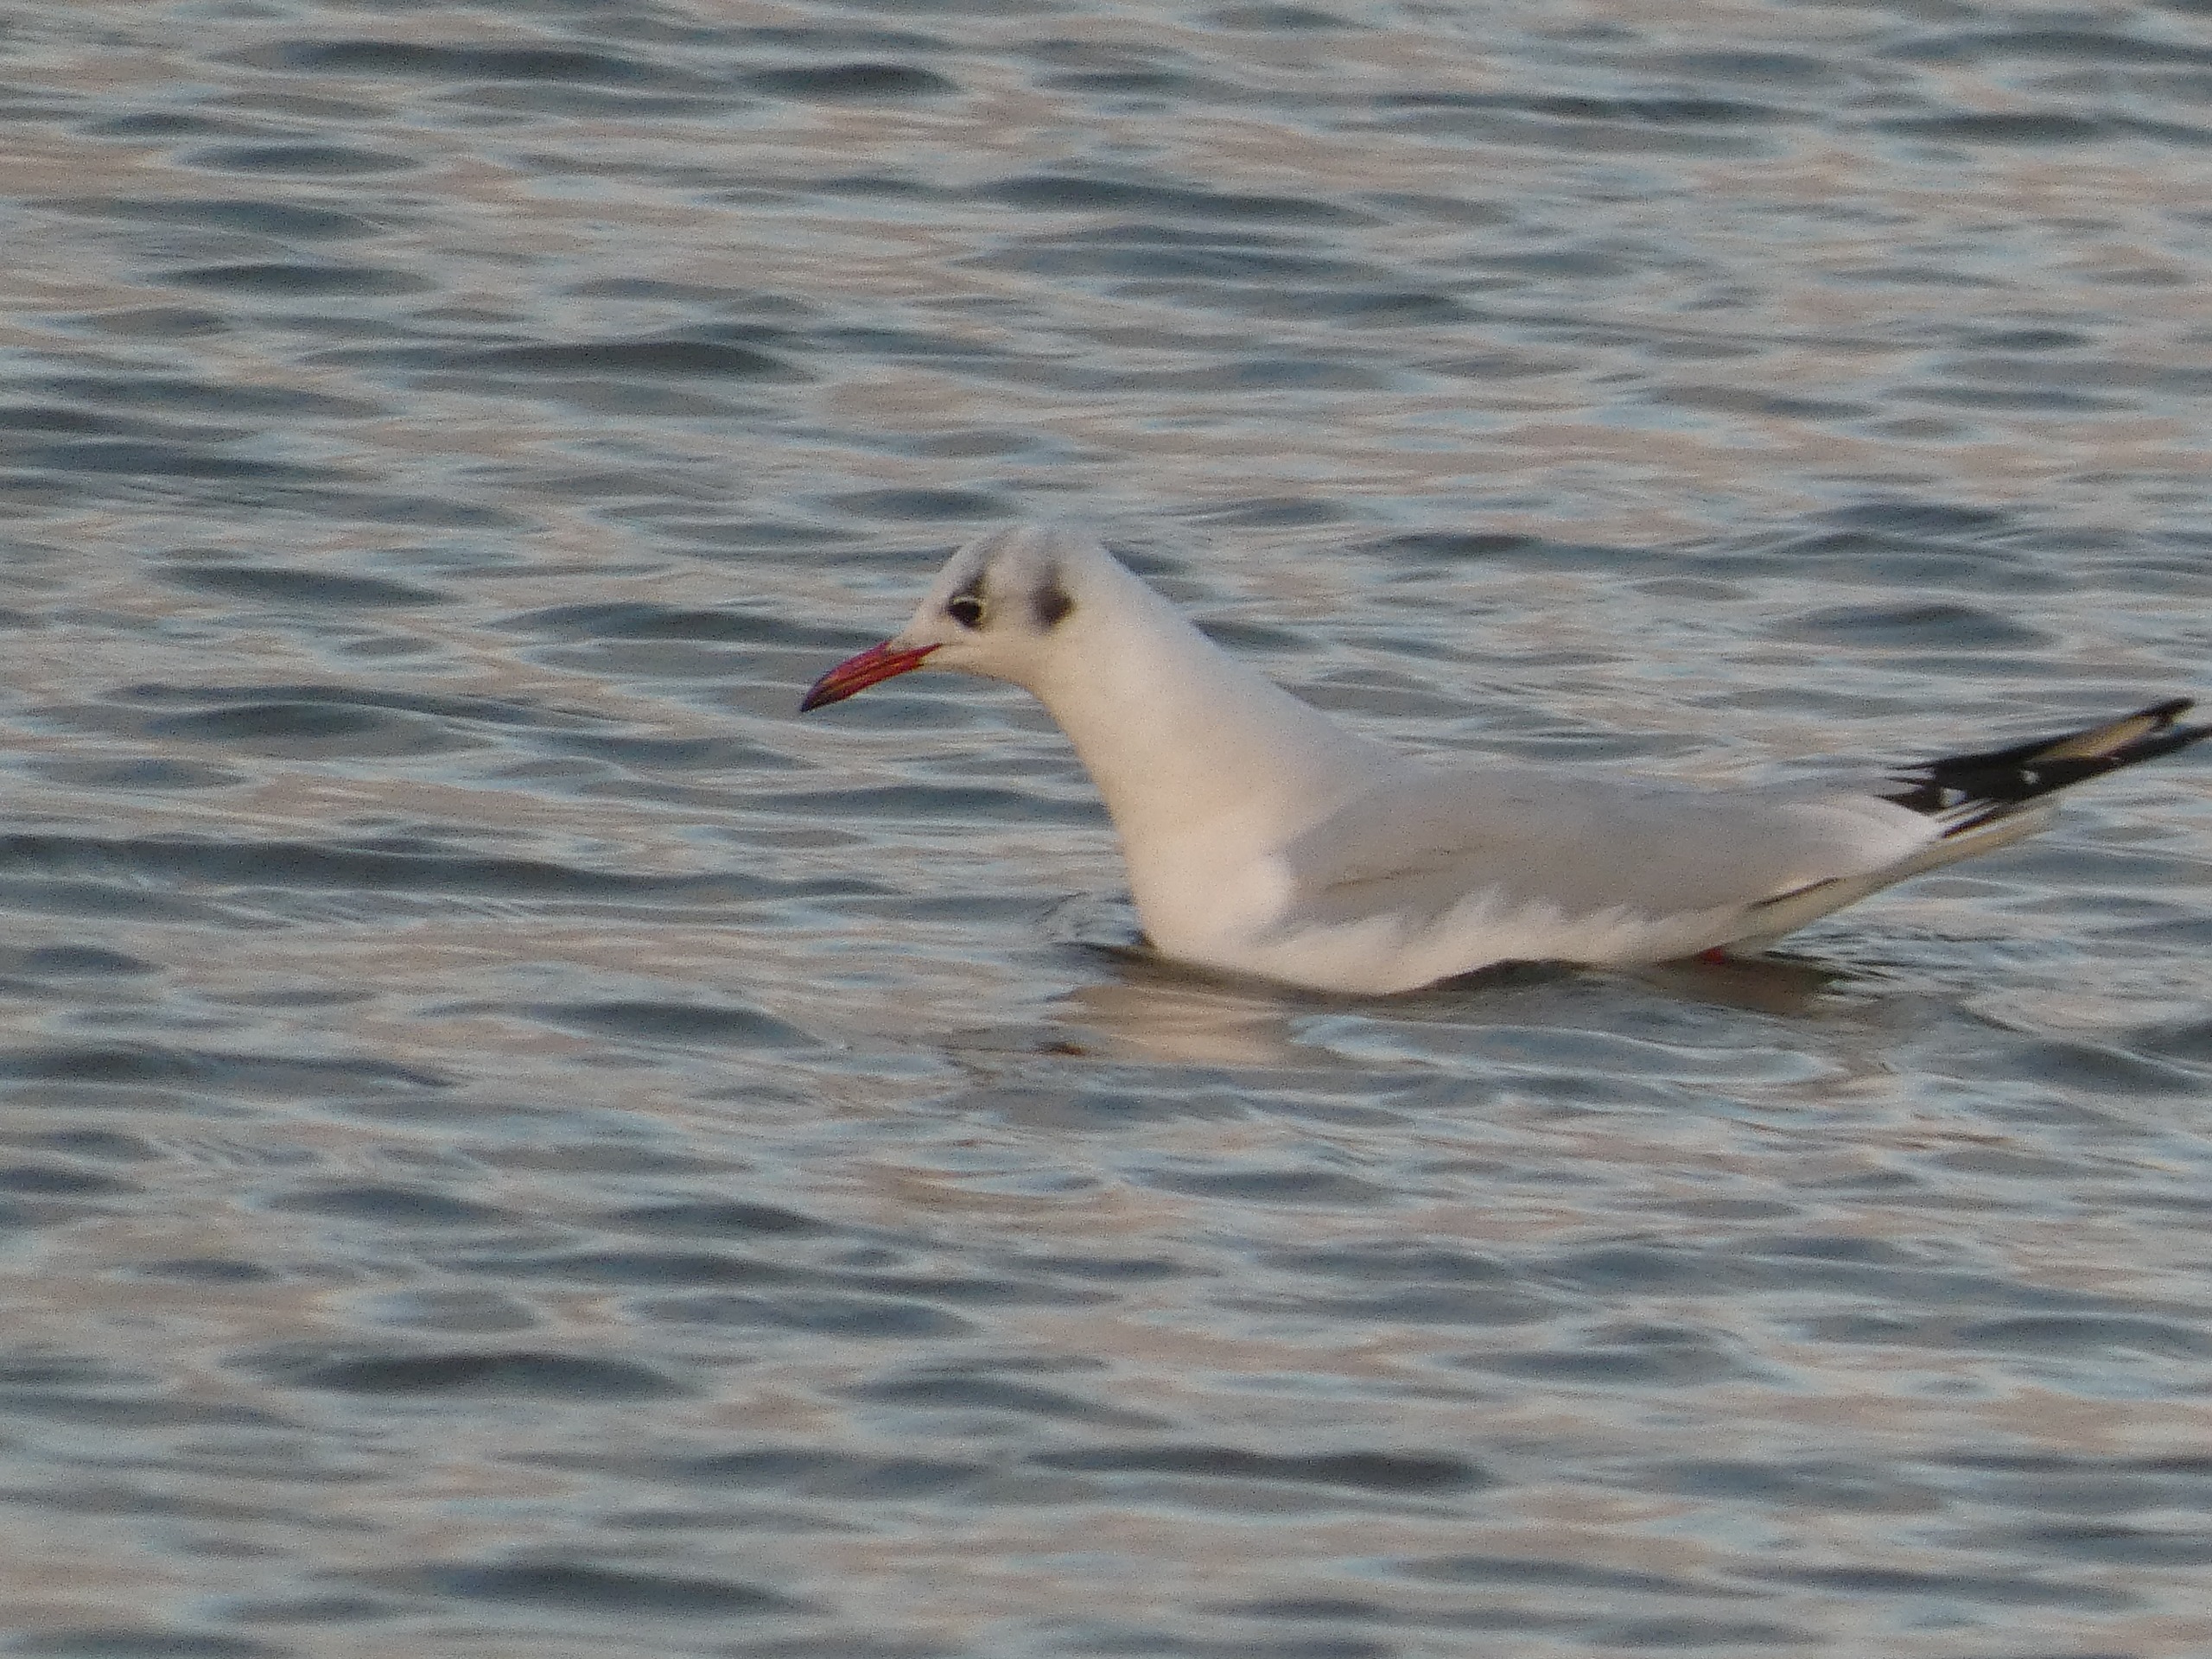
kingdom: Animalia
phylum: Chordata
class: Aves
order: Charadriiformes
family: Laridae
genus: Chroicocephalus
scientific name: Chroicocephalus ridibundus
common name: Hættemåge
